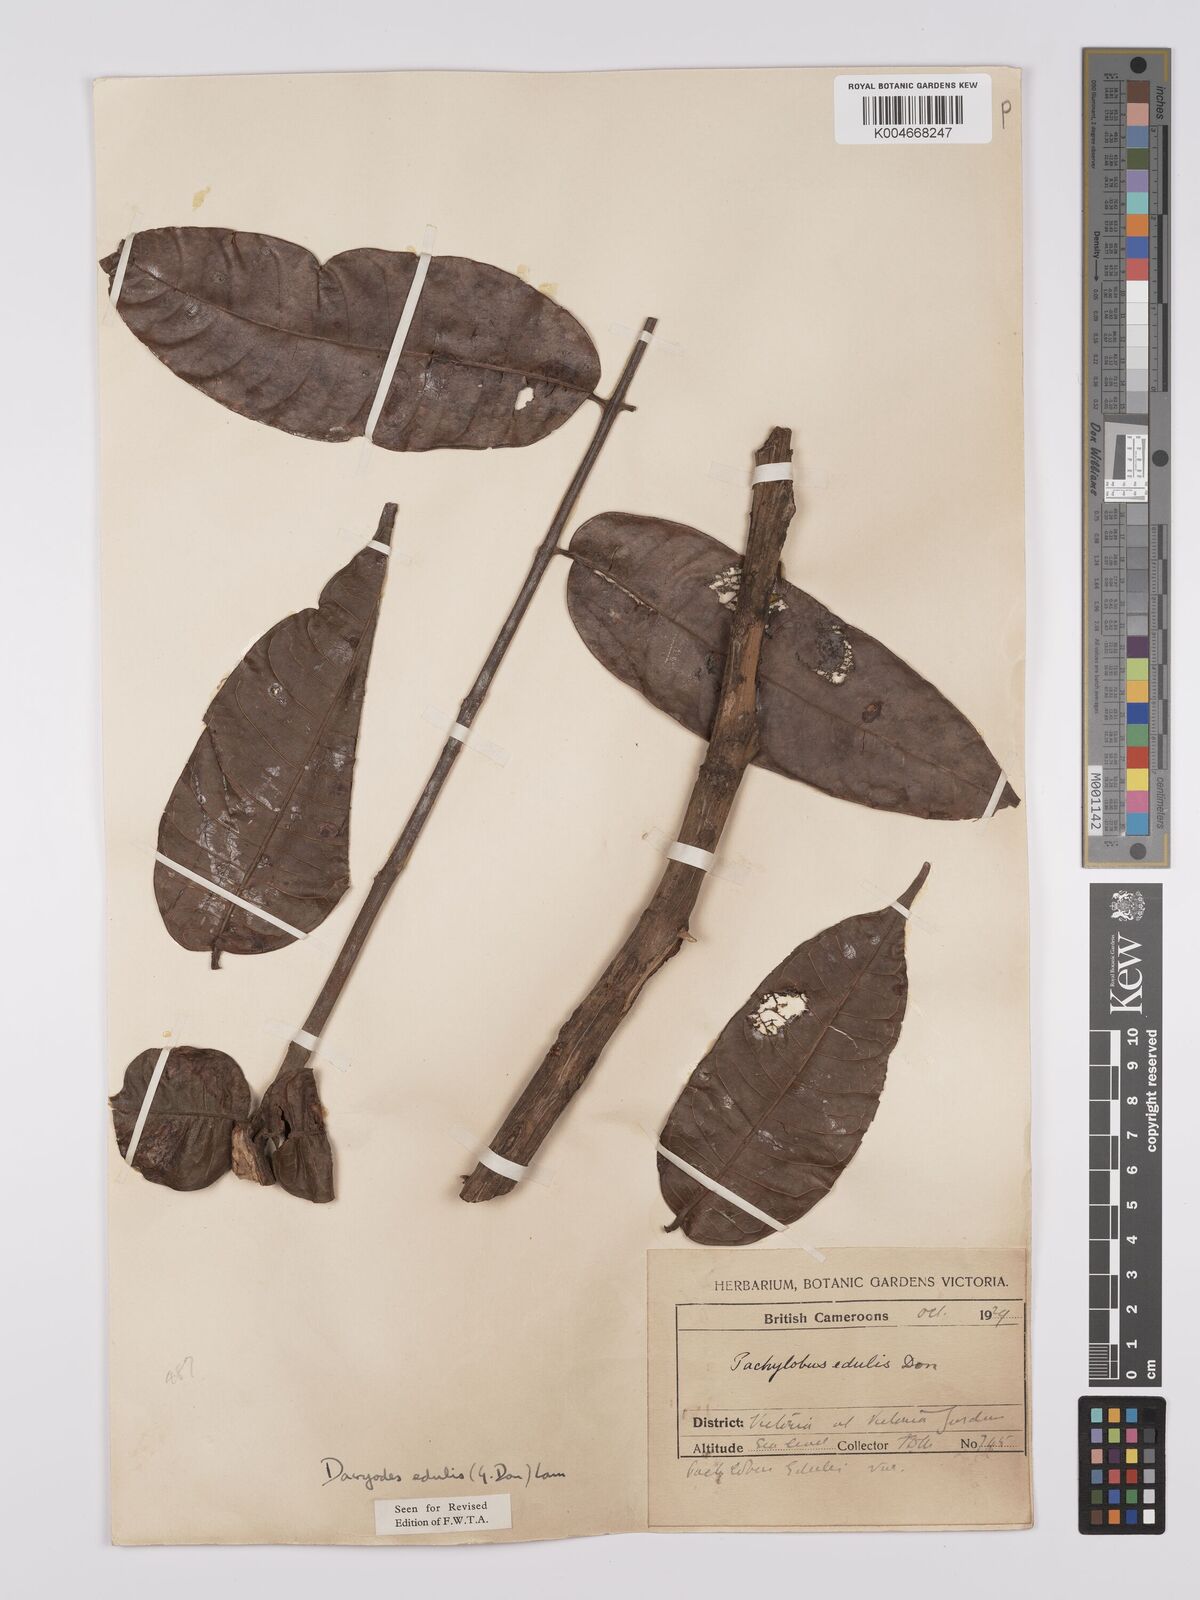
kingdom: Plantae
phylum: Tracheophyta
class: Magnoliopsida
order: Sapindales
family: Burseraceae
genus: Pachylobus
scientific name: Pachylobus edulis
